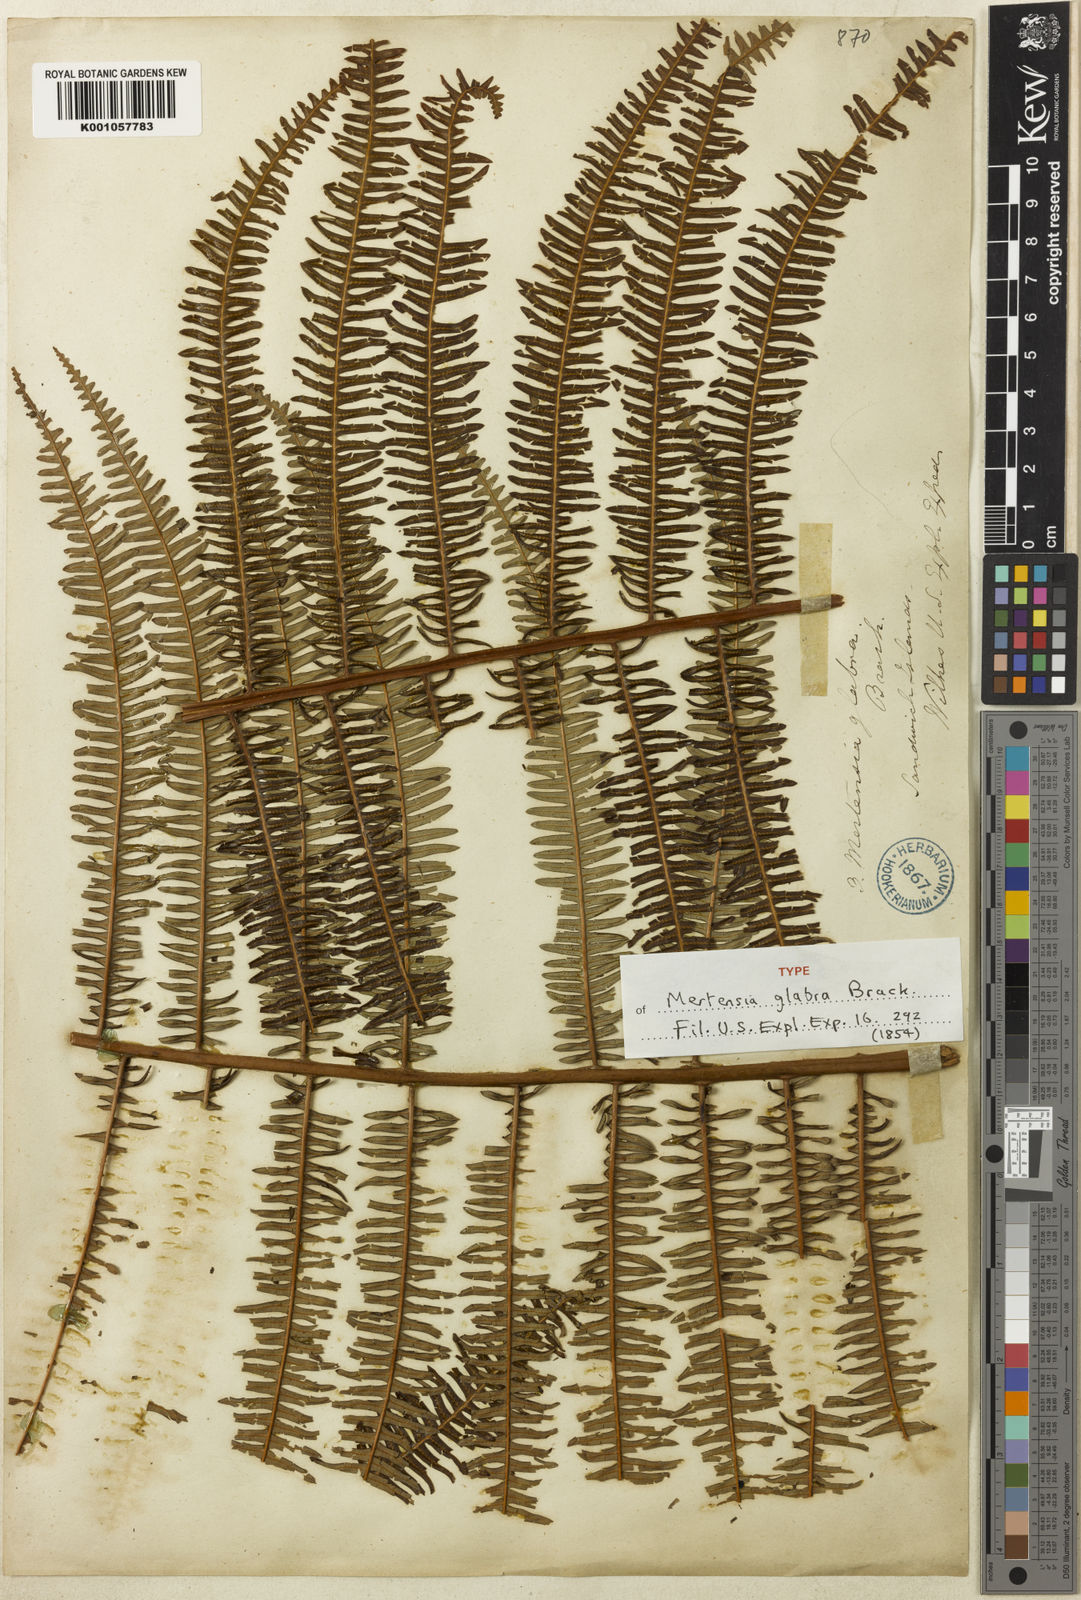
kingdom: Plantae
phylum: Tracheophyta
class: Polypodiopsida
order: Gleicheniales
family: Gleicheniaceae
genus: Diplopterygium
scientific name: Diplopterygium pinnatum
